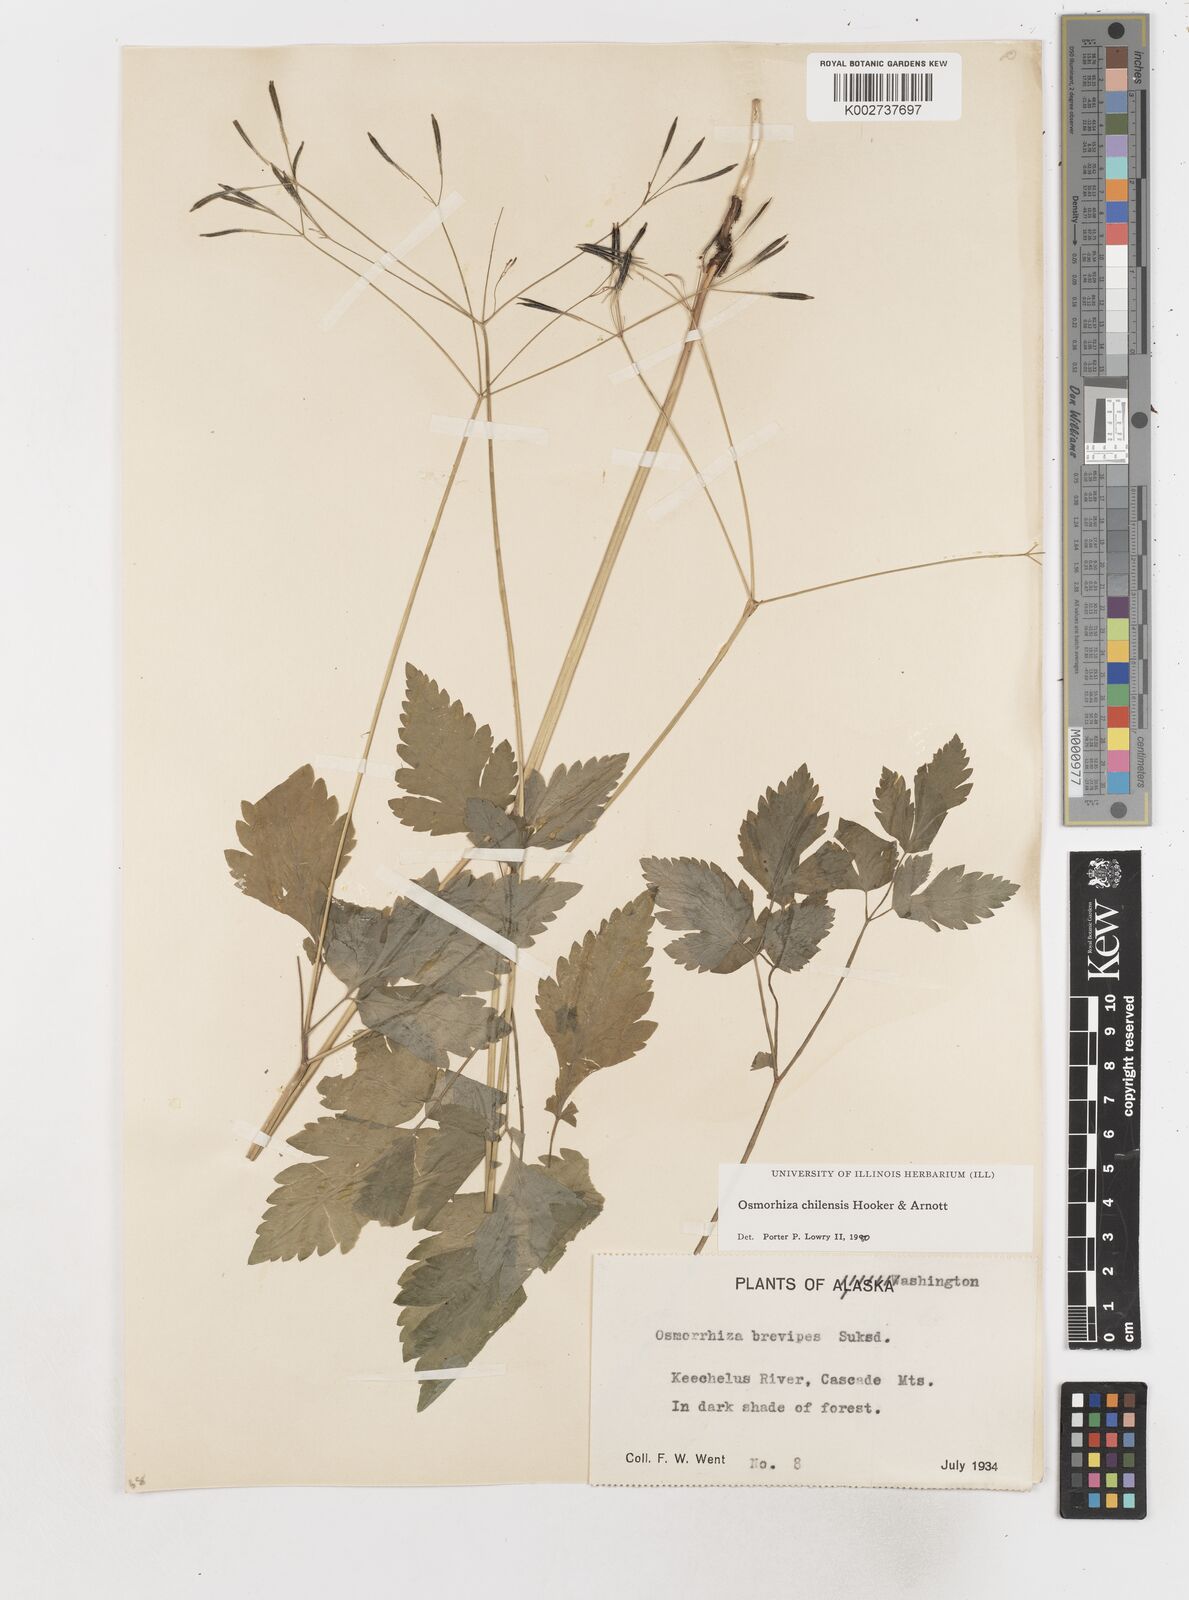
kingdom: Plantae
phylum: Tracheophyta
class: Magnoliopsida
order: Apiales
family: Apiaceae
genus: Osmorhiza
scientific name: Osmorhiza berteroi
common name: Mountain sweet cicely
